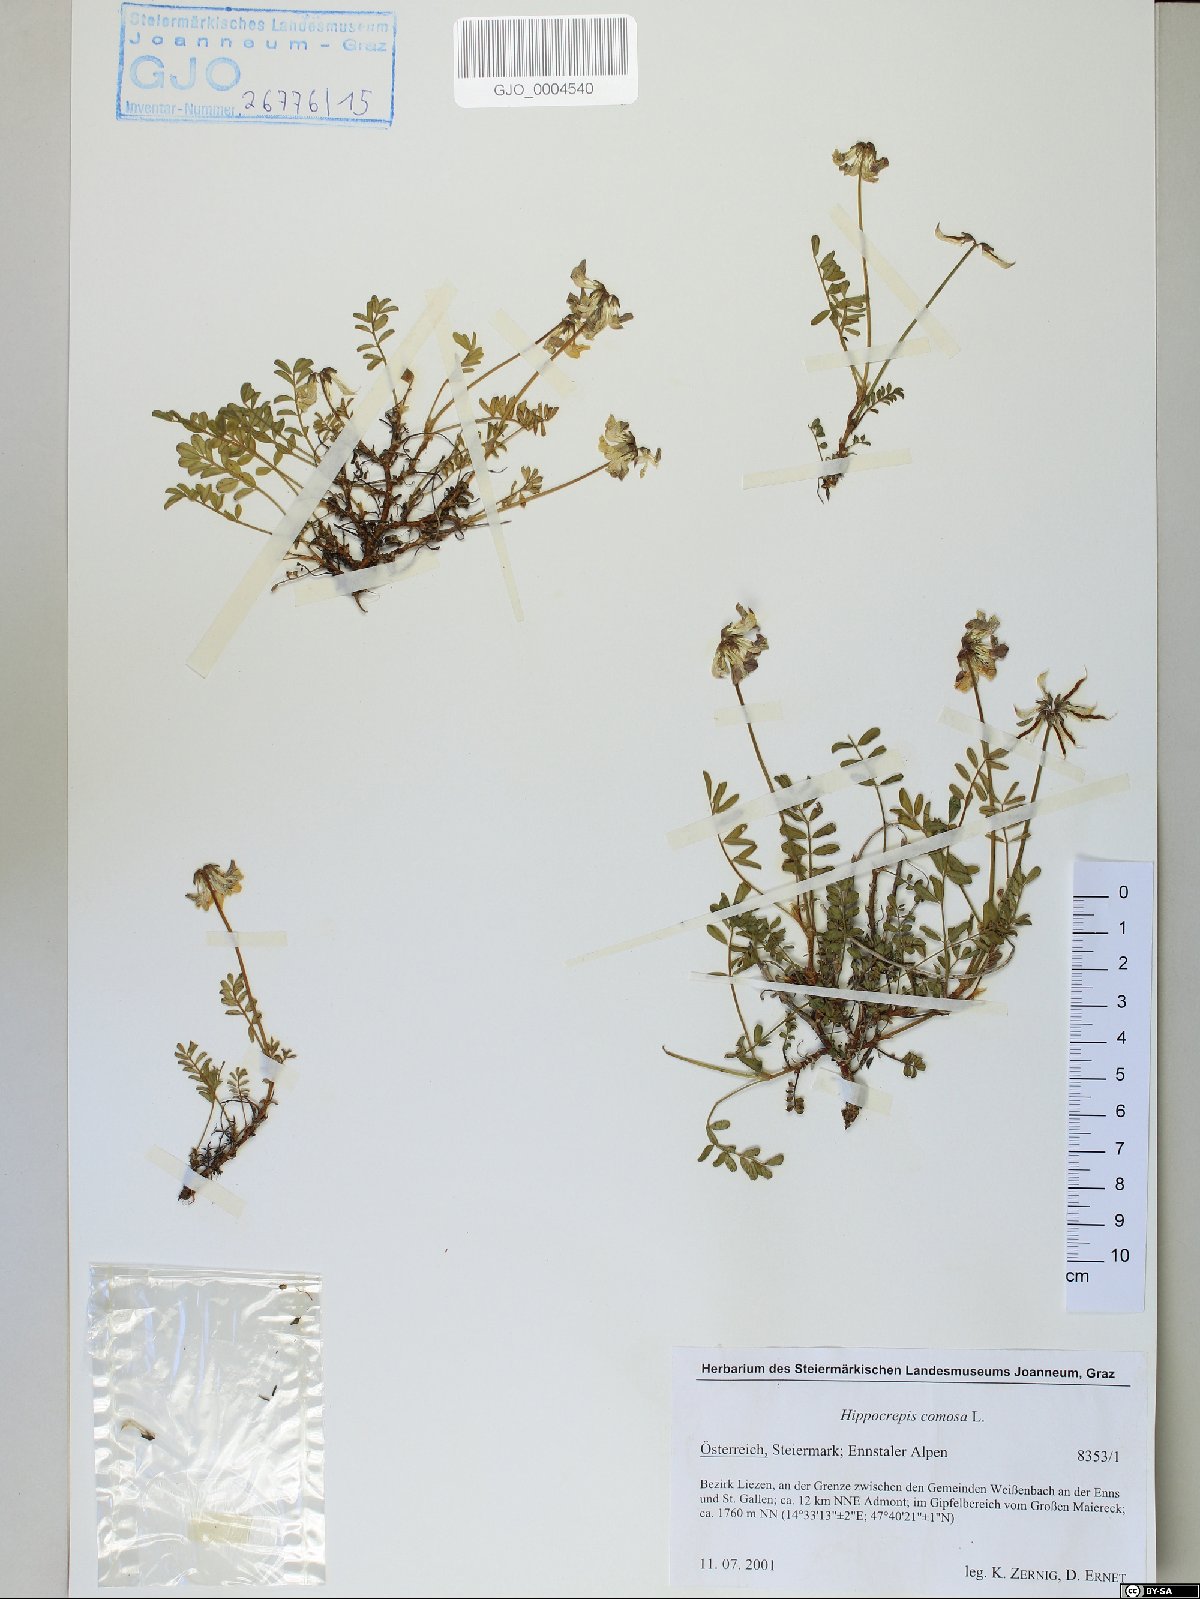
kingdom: Plantae
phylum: Tracheophyta
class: Magnoliopsida
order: Fabales
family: Fabaceae
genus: Hippocrepis
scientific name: Hippocrepis comosa
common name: Horseshoe vetch
